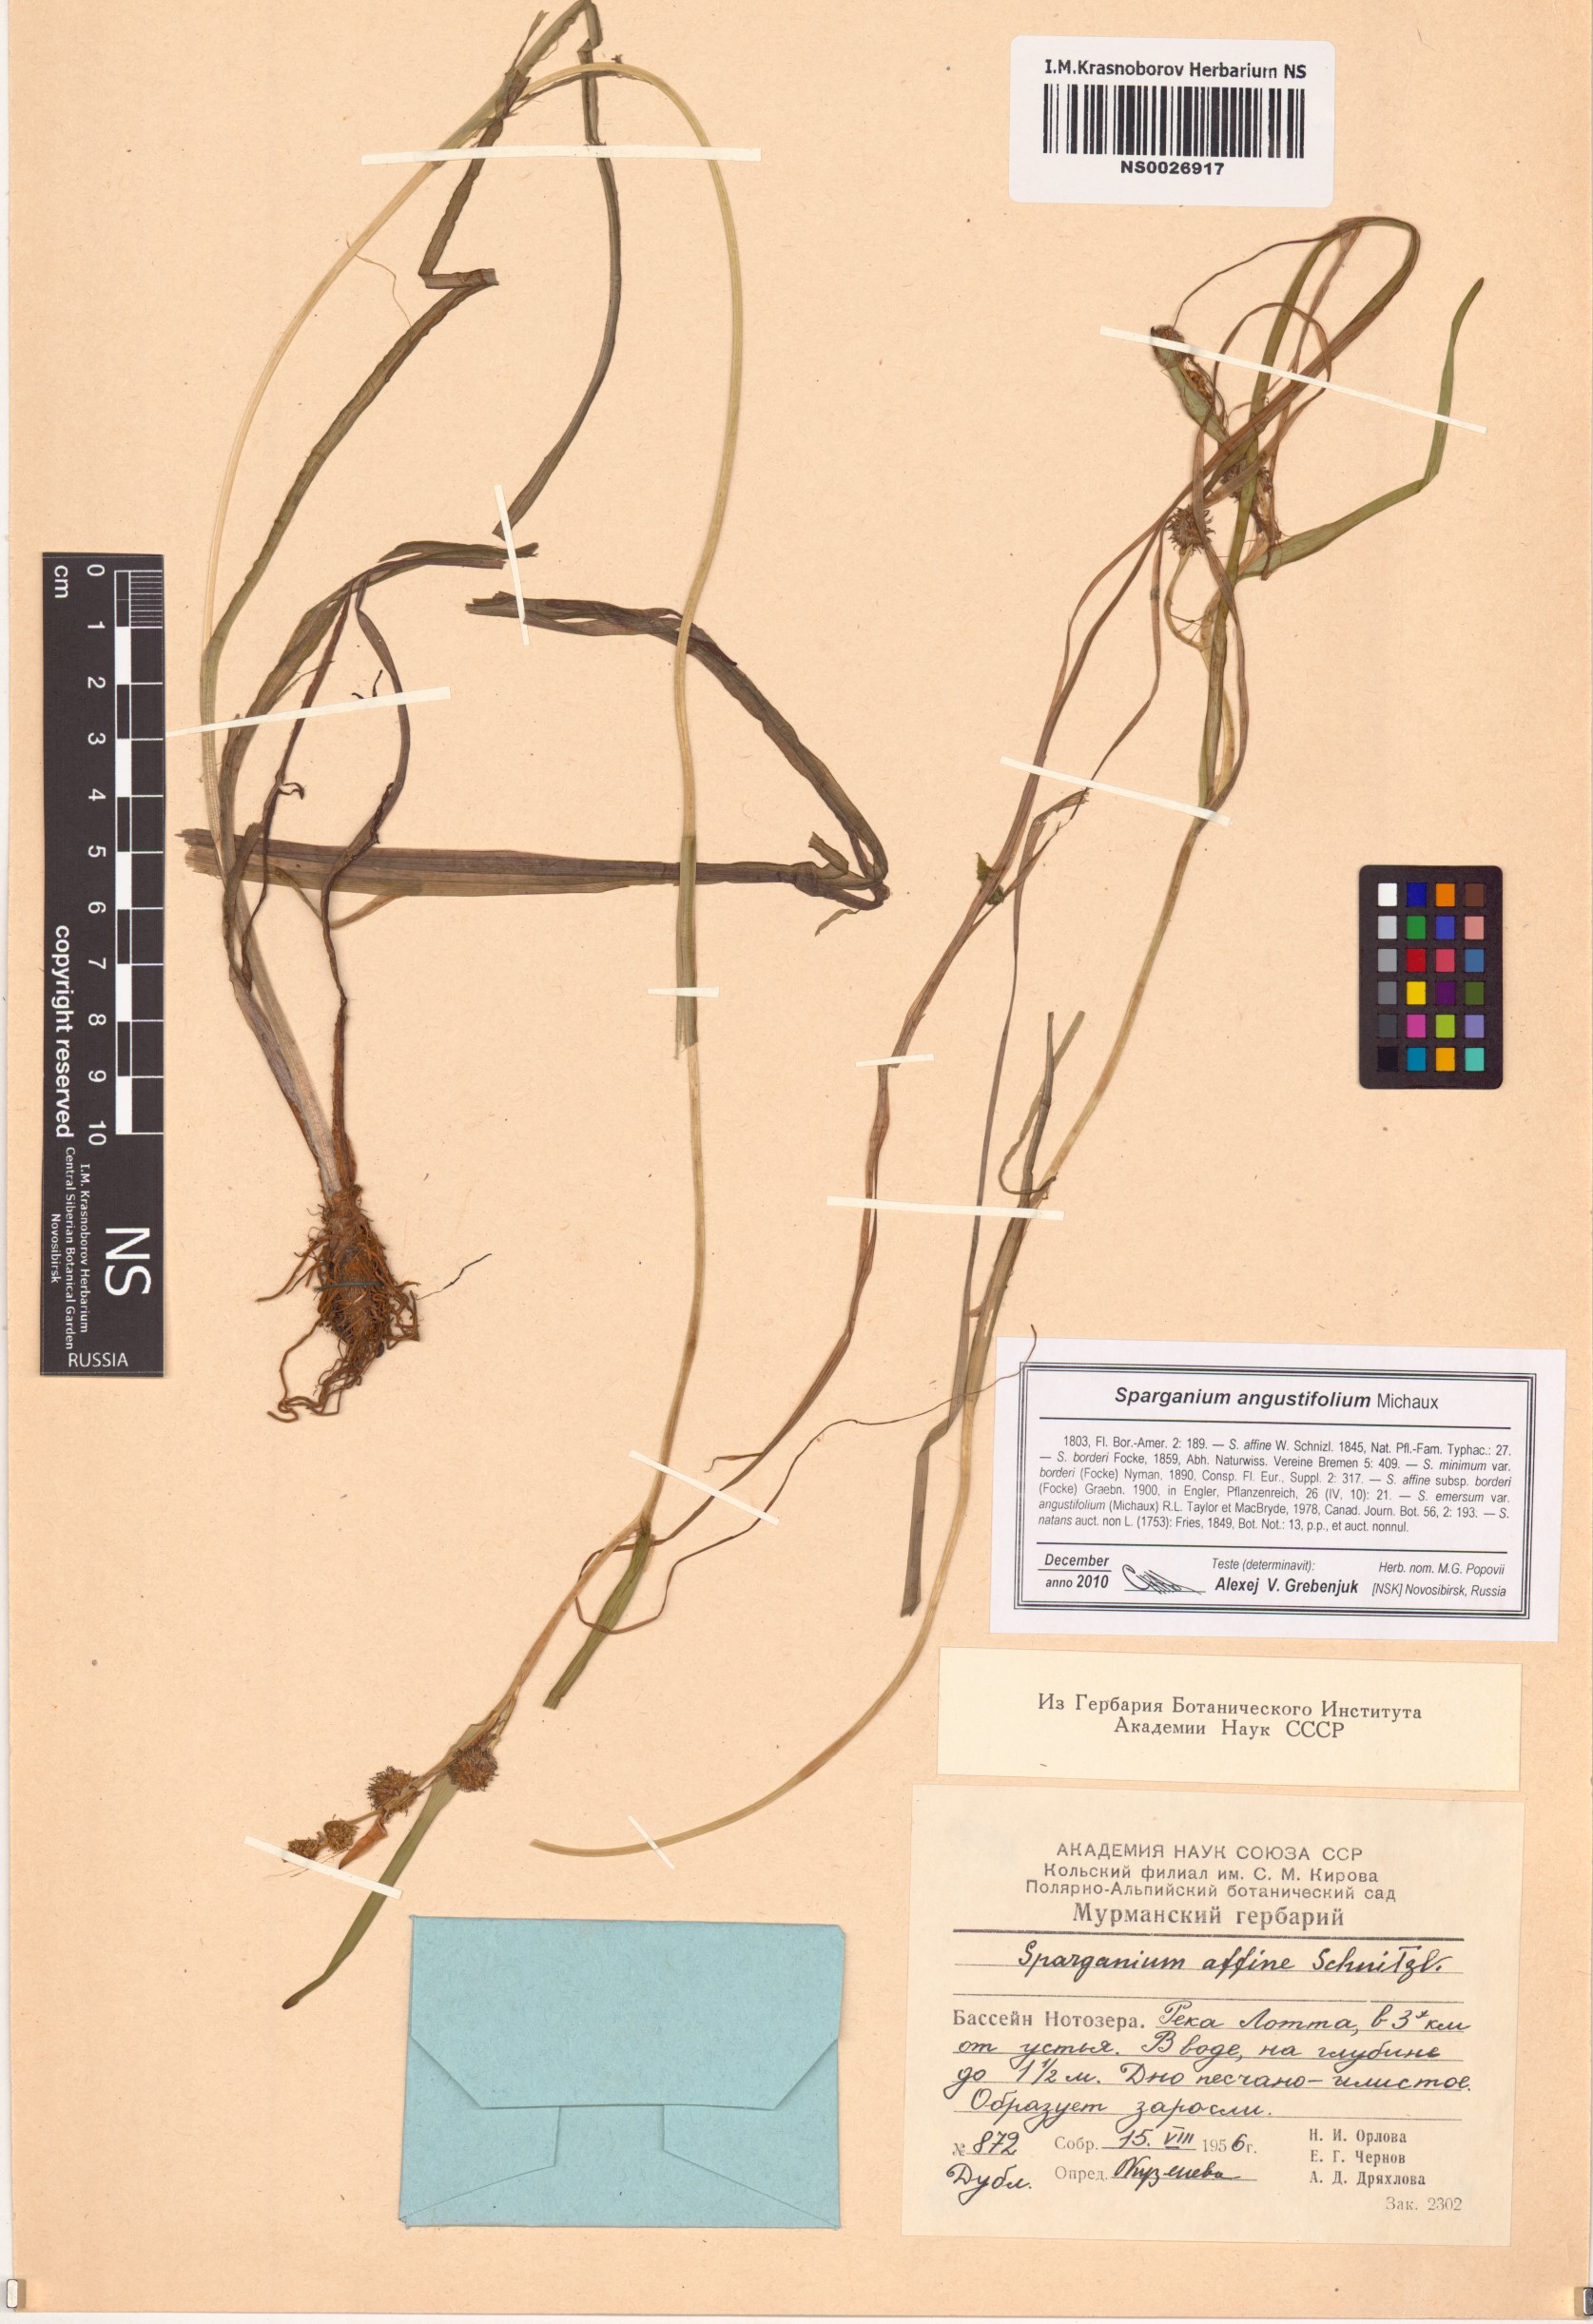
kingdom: Plantae
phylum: Tracheophyta
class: Liliopsida
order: Poales
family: Typhaceae
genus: Sparganium
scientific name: Sparganium angustifolium
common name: Floating bur-reed
